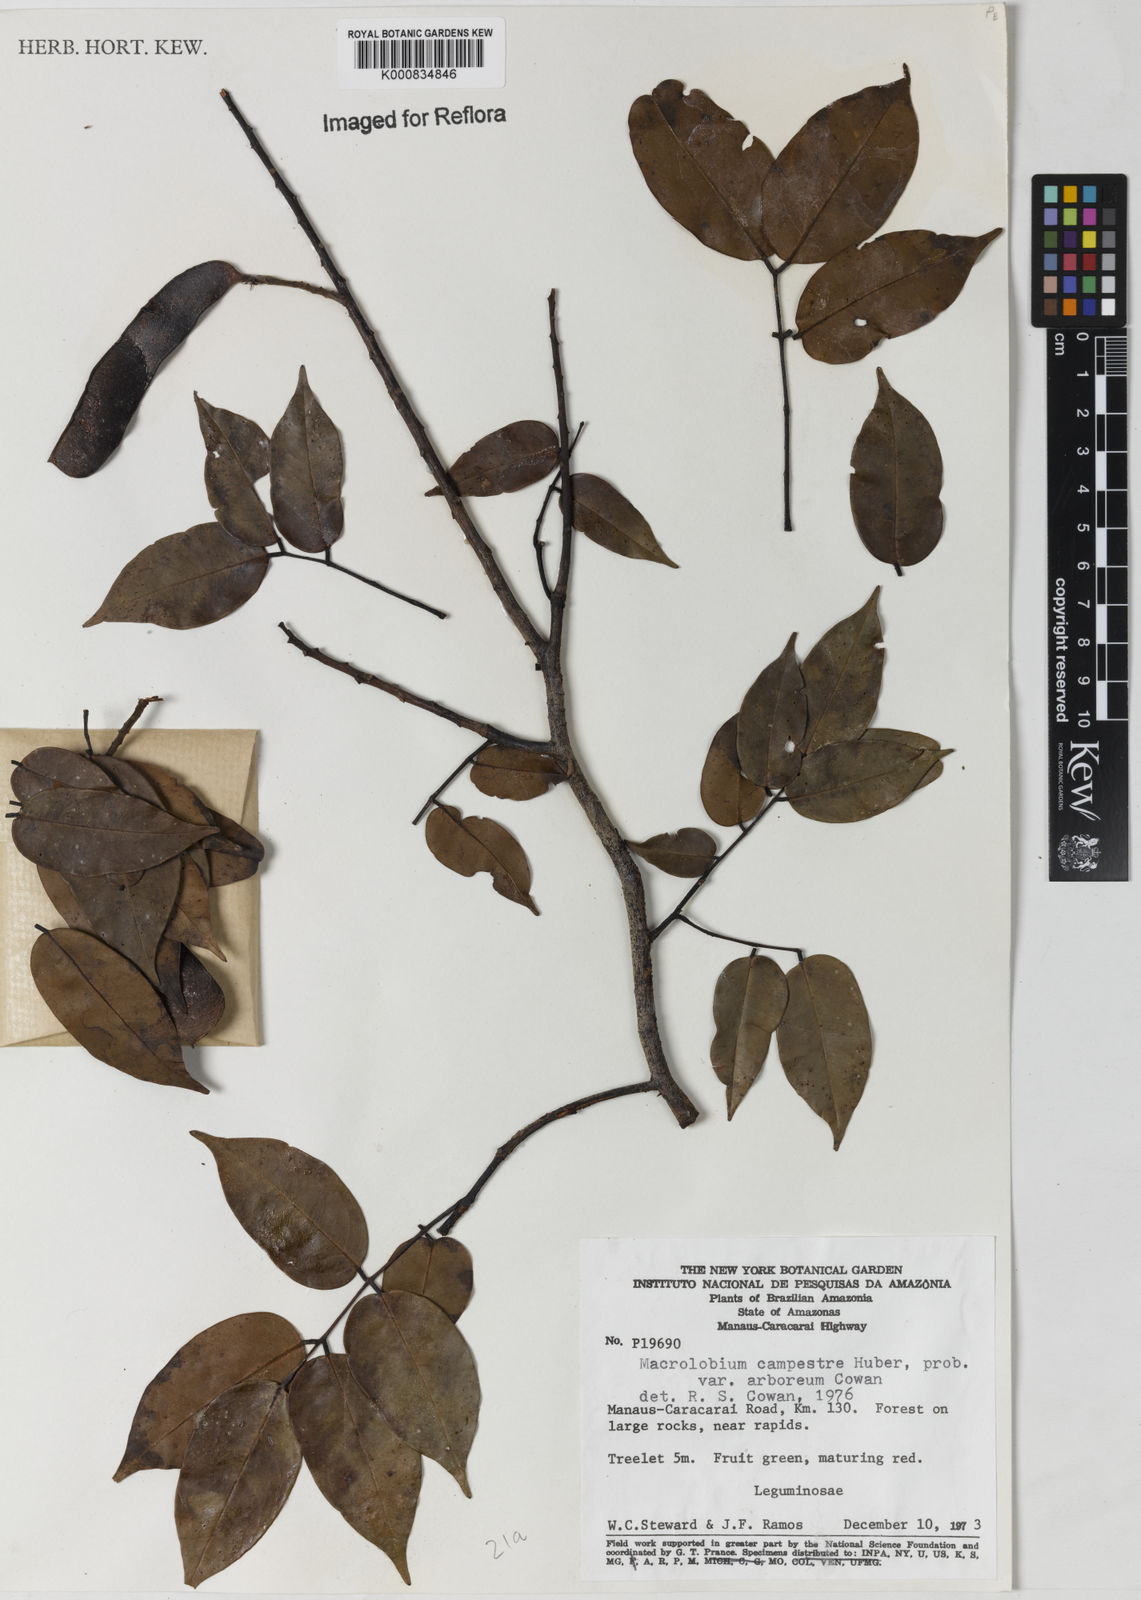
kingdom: Plantae
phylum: Tracheophyta
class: Magnoliopsida
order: Fabales
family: Fabaceae
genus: Macrolobium
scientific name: Macrolobium campestre
